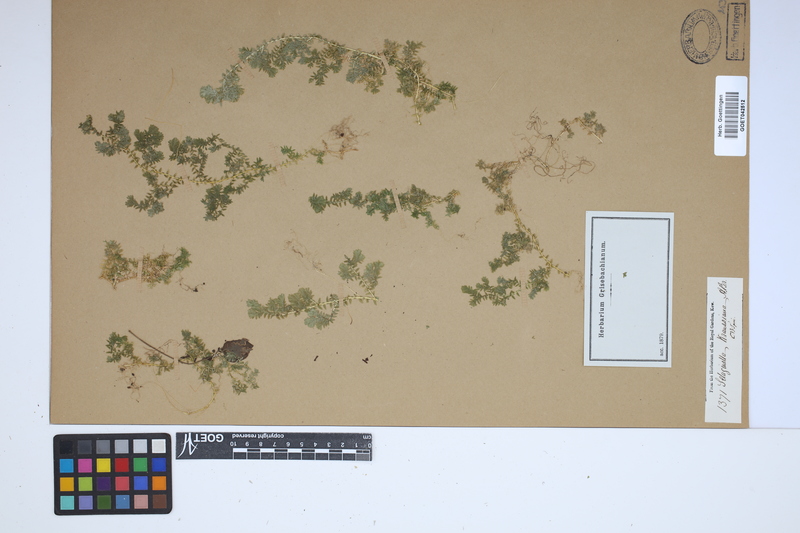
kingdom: Plantae
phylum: Tracheophyta
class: Lycopodiopsida
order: Selaginellales
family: Selaginellaceae
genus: Selaginella
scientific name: Selaginella kraussiana
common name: Krauss' spikemoss
